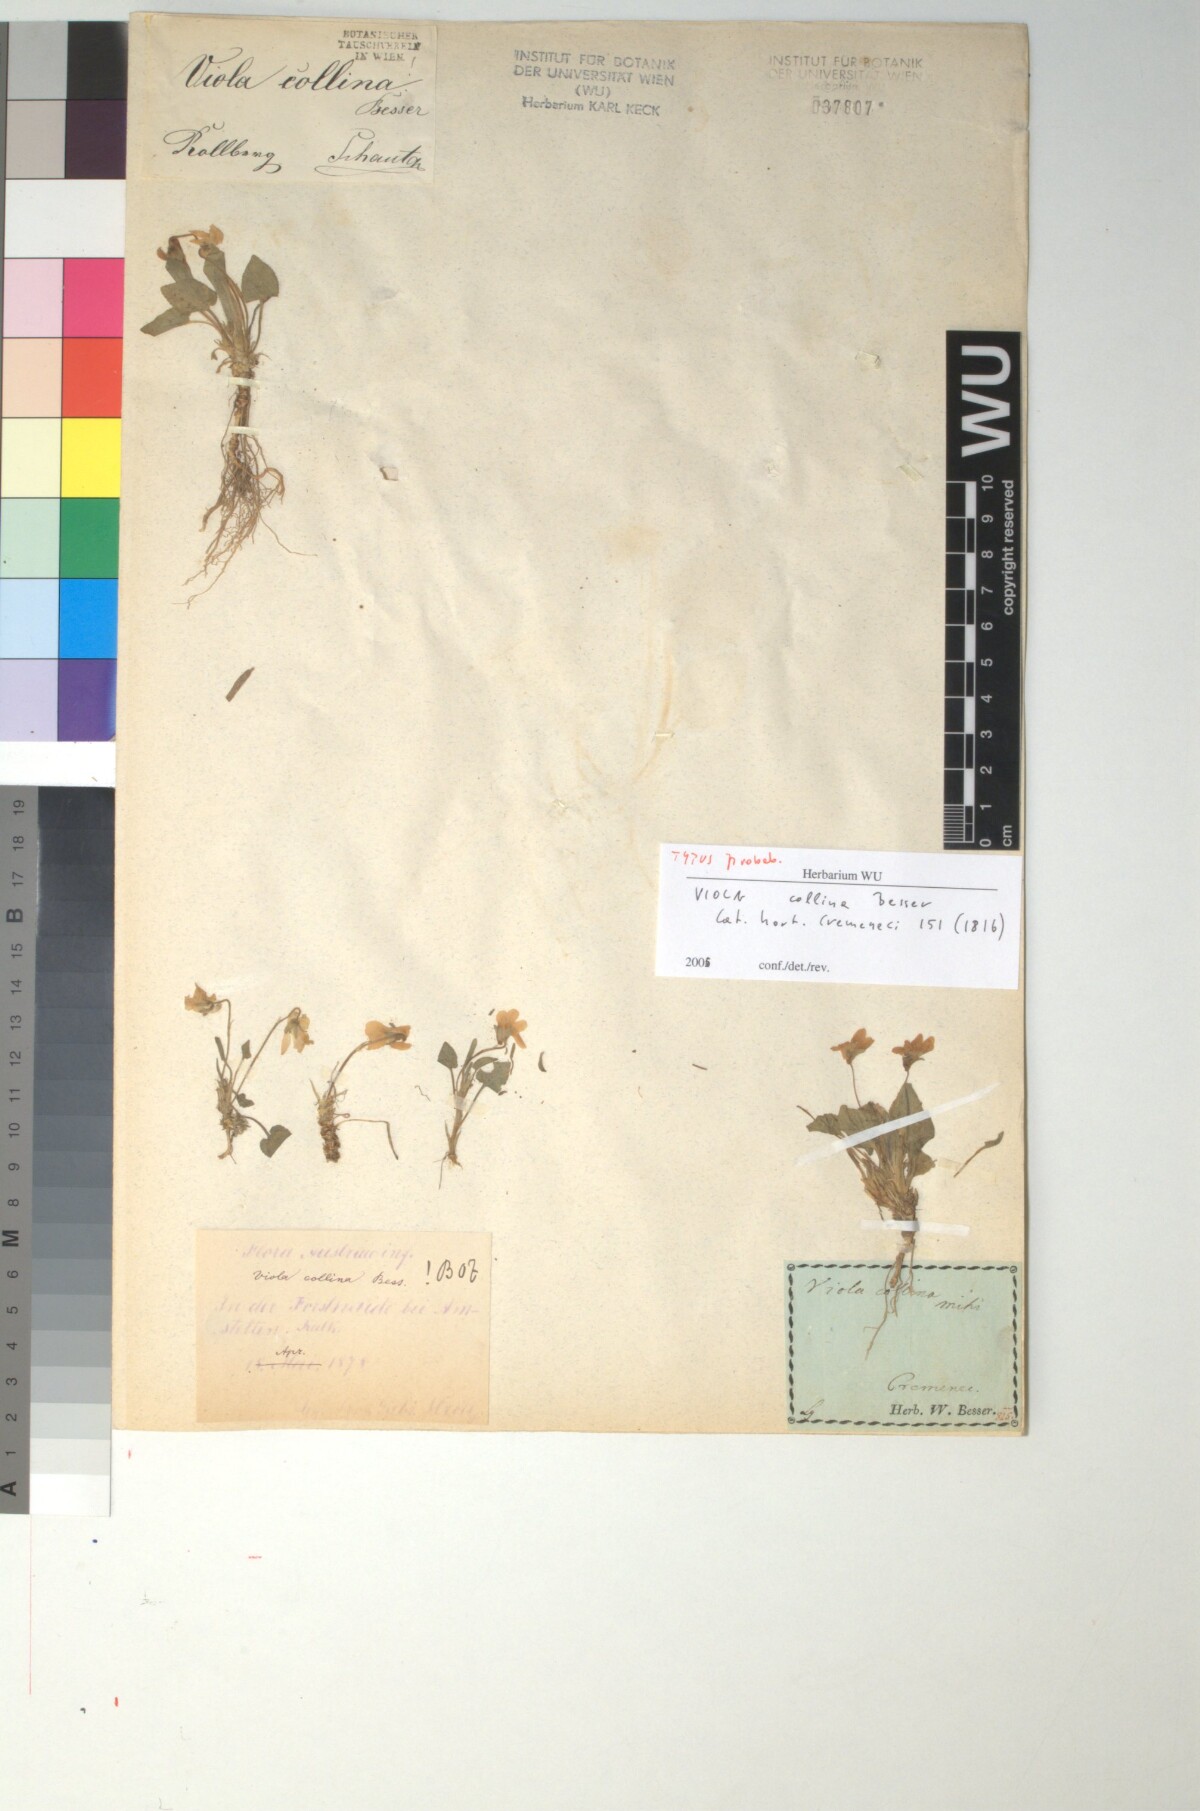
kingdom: Plantae
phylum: Tracheophyta
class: Magnoliopsida
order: Malpighiales
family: Violaceae
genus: Viola
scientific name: Viola collina
